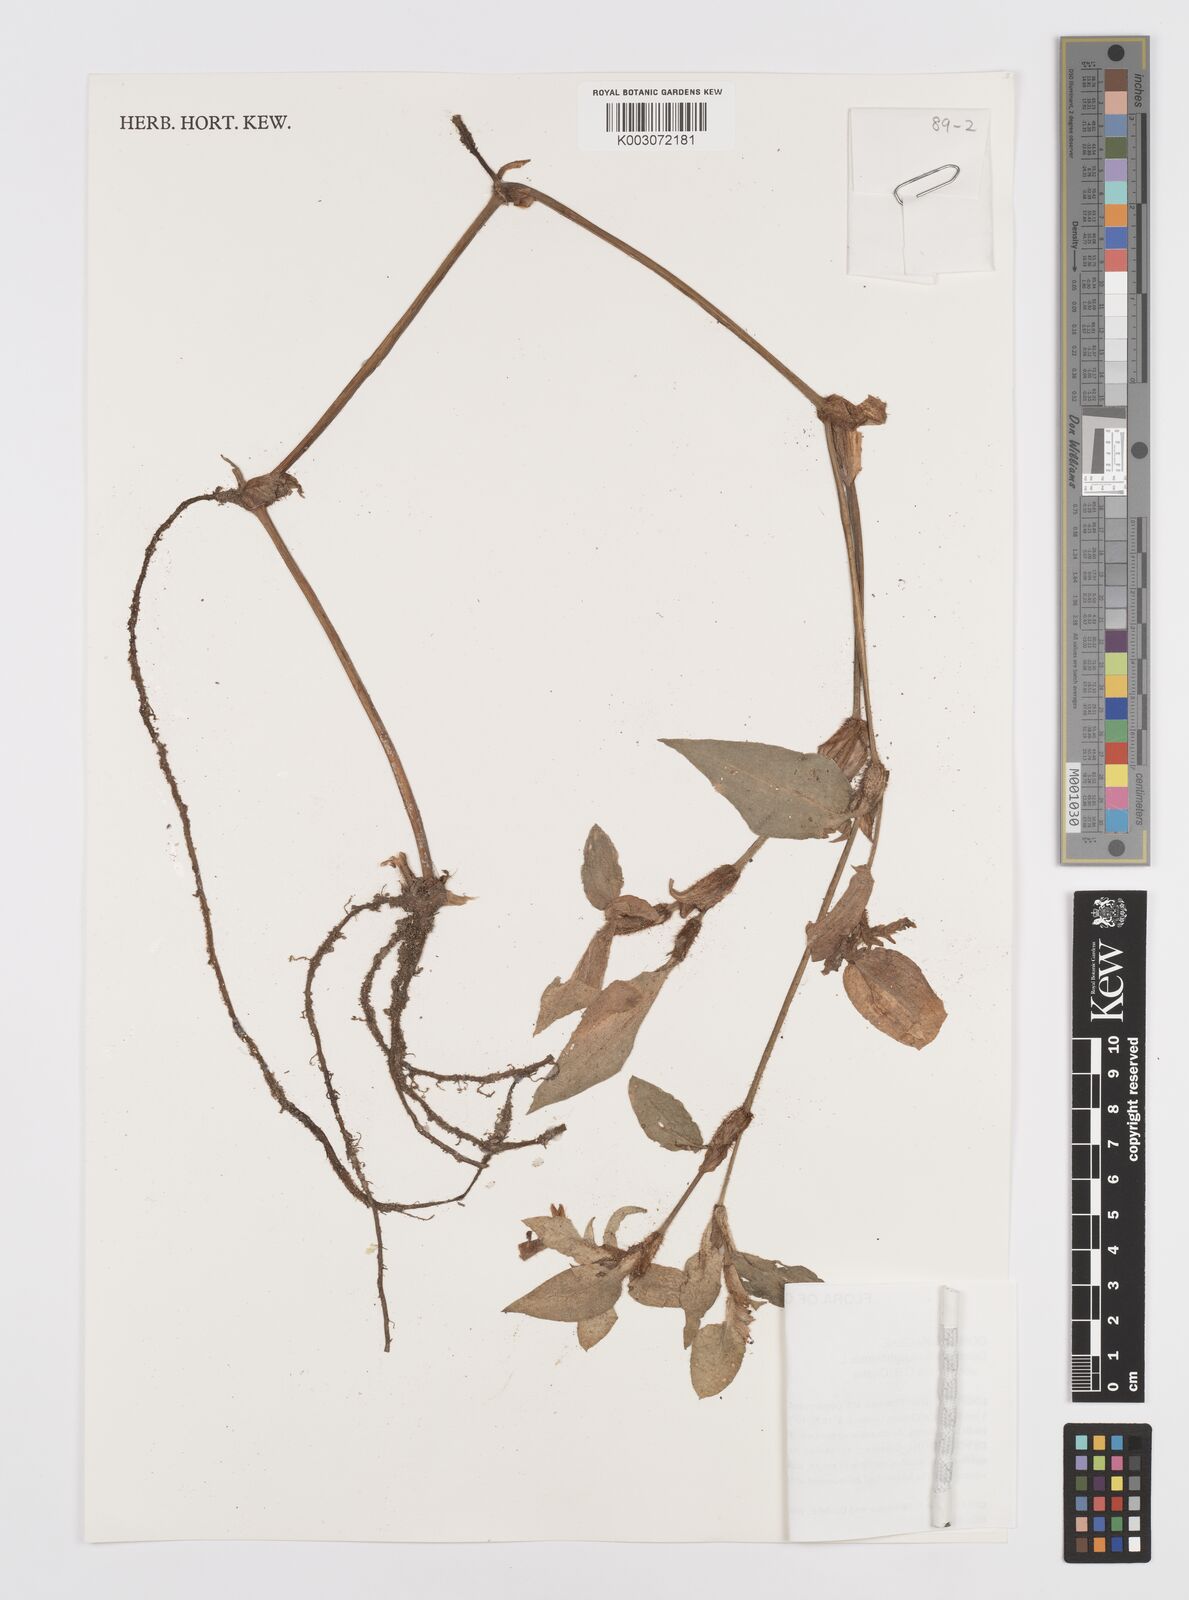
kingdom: Plantae
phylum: Tracheophyta
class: Liliopsida
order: Commelinales
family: Commelinaceae
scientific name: Commelinaceae
